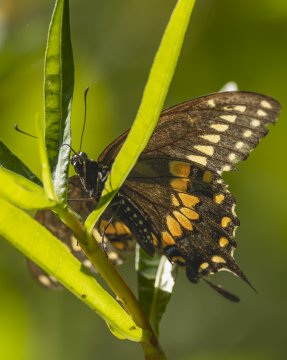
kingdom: Animalia
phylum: Arthropoda
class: Insecta
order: Lepidoptera
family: Papilionidae
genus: Papilio
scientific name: Papilio polyxenes
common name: Black Swallowtail
